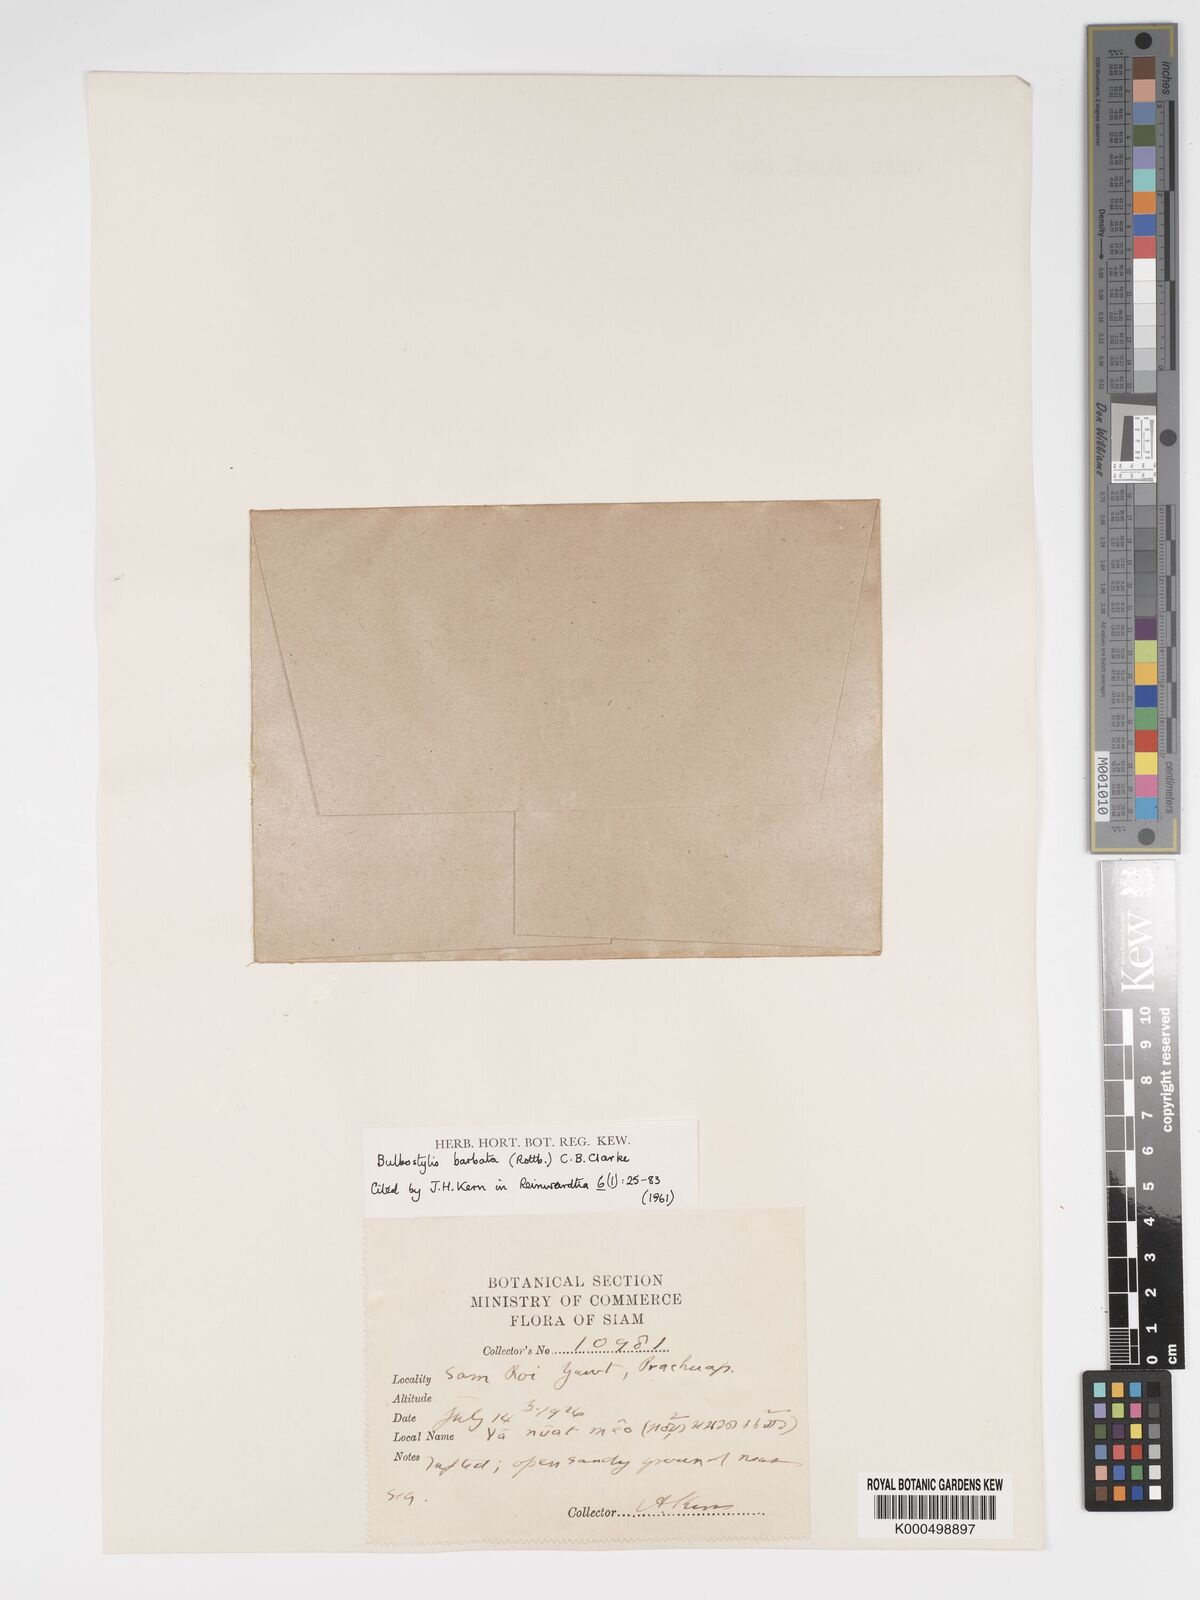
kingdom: Plantae
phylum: Tracheophyta
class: Liliopsida
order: Poales
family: Cyperaceae
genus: Bulbostylis
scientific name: Bulbostylis barbata
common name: Watergrass
